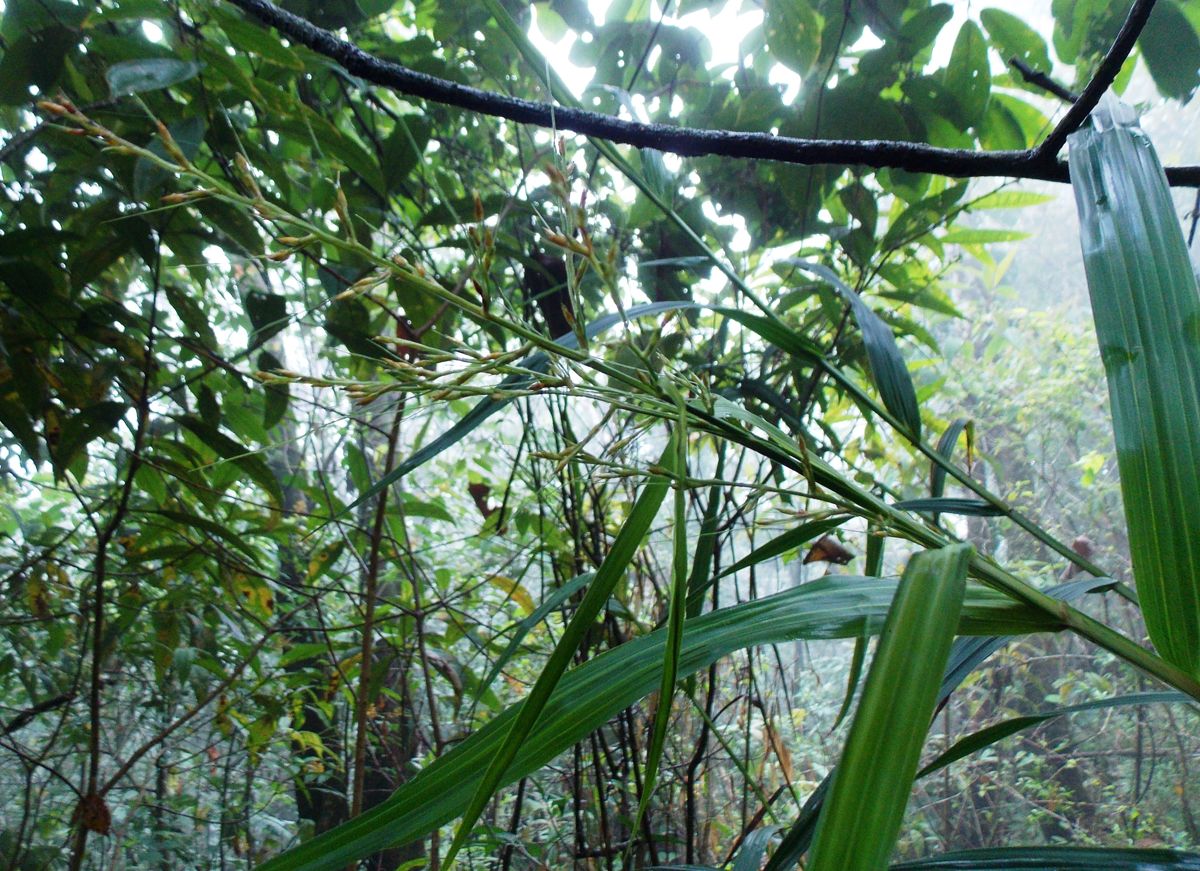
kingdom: Plantae
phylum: Tracheophyta
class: Liliopsida
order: Poales
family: Cyperaceae
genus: Scleria
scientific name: Scleria latifolia
